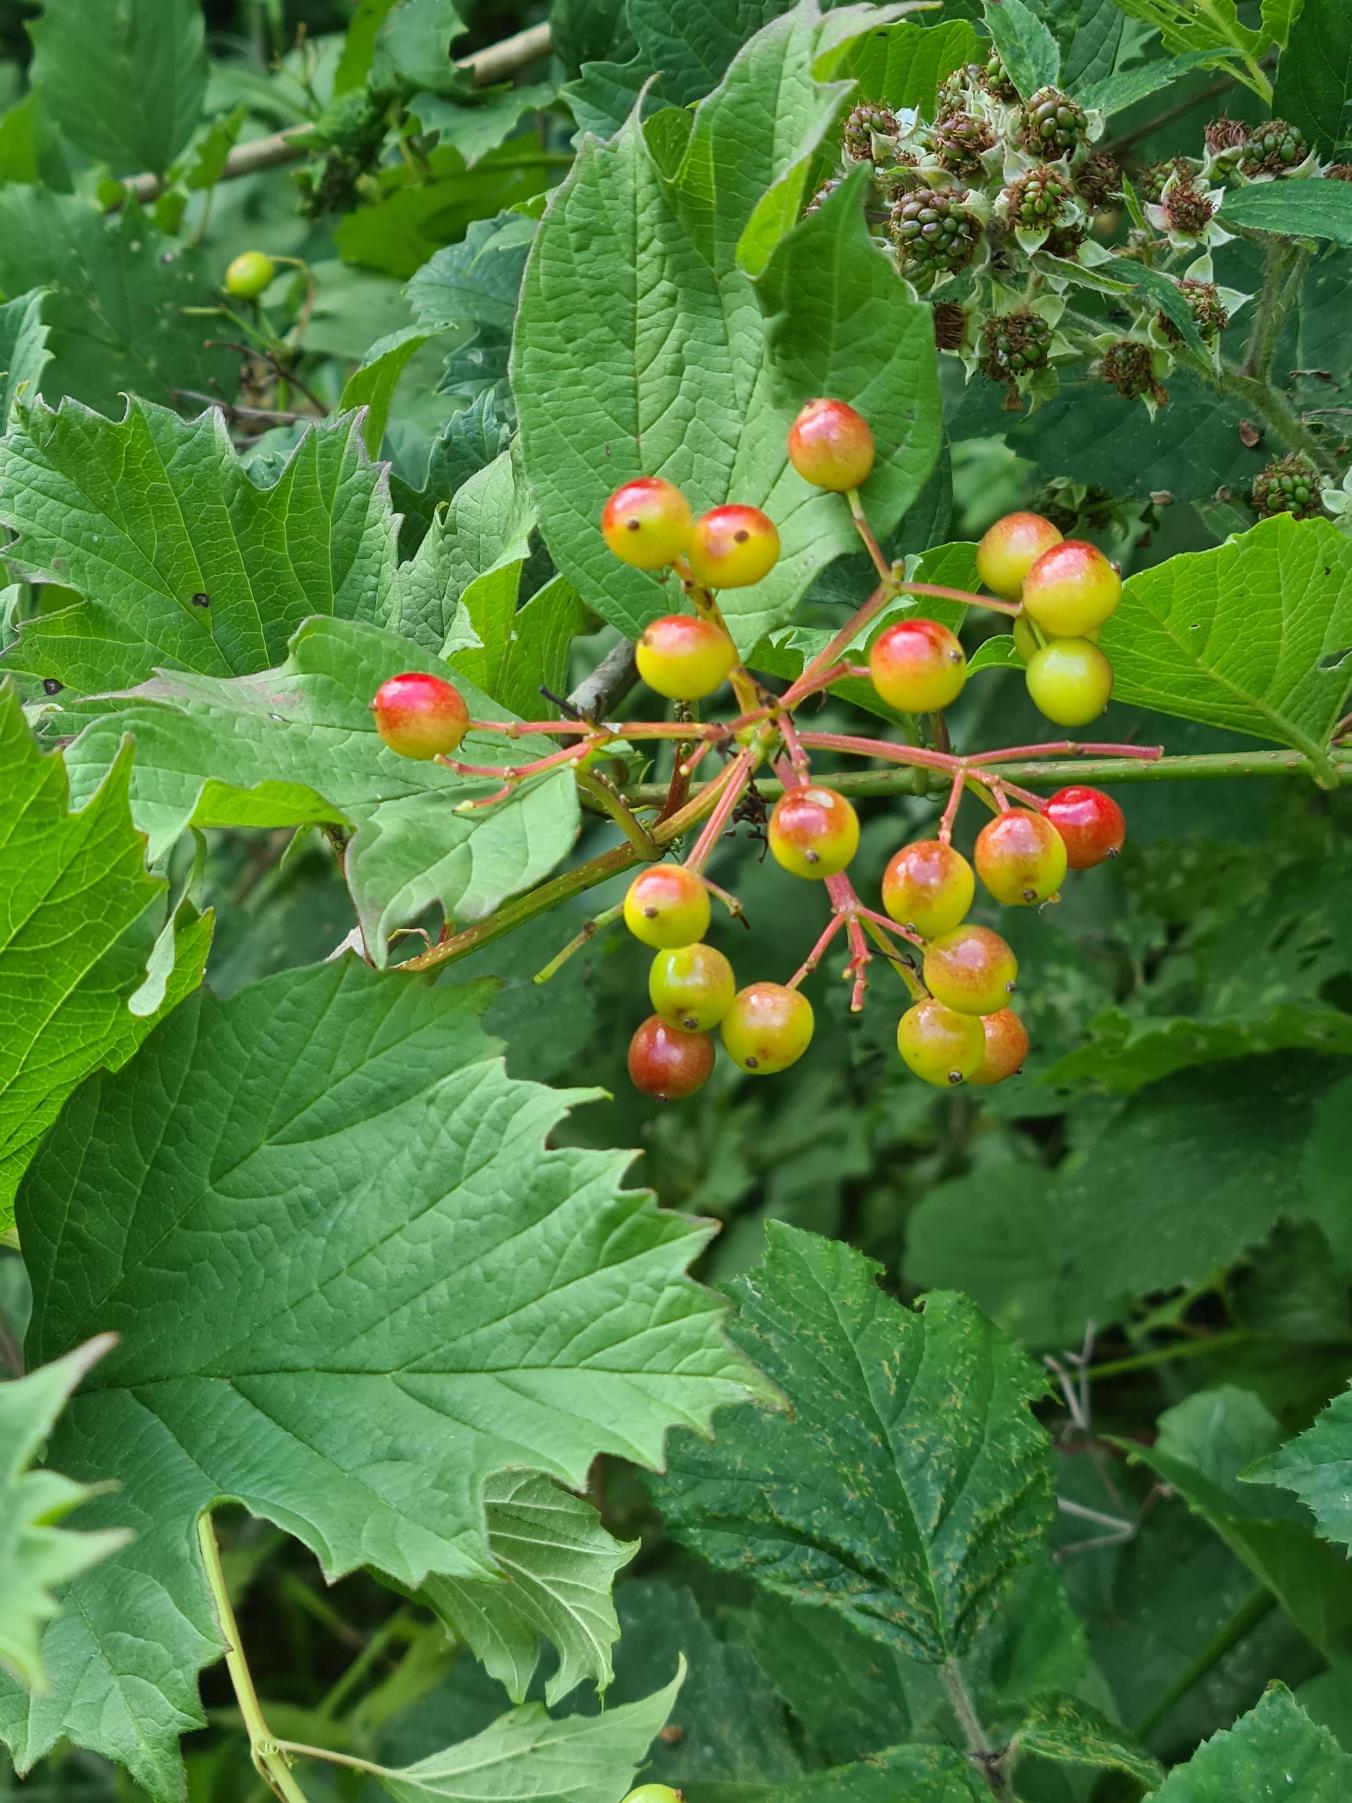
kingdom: Plantae
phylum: Tracheophyta
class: Magnoliopsida
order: Dipsacales
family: Viburnaceae
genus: Viburnum
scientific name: Viburnum opulus
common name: Kvalkved
